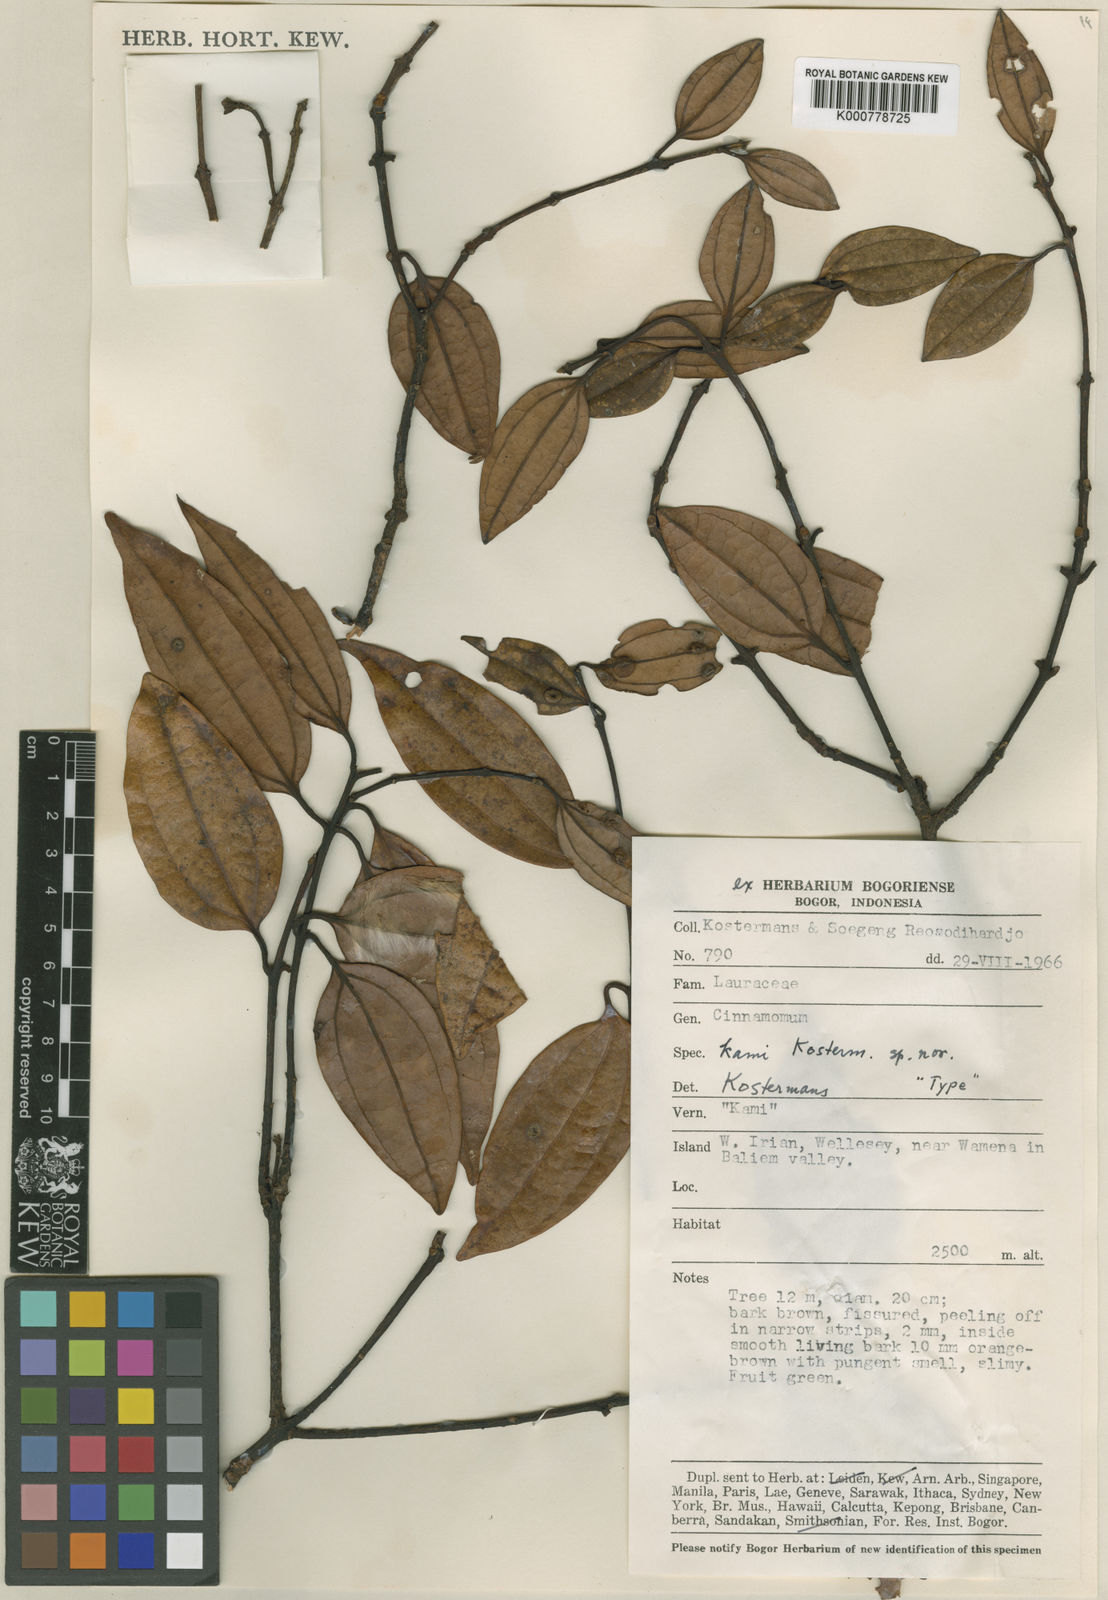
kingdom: Plantae
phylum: Tracheophyta
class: Magnoliopsida
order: Laurales
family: Lauraceae
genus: Cinnamomum
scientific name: Cinnamomum kami
